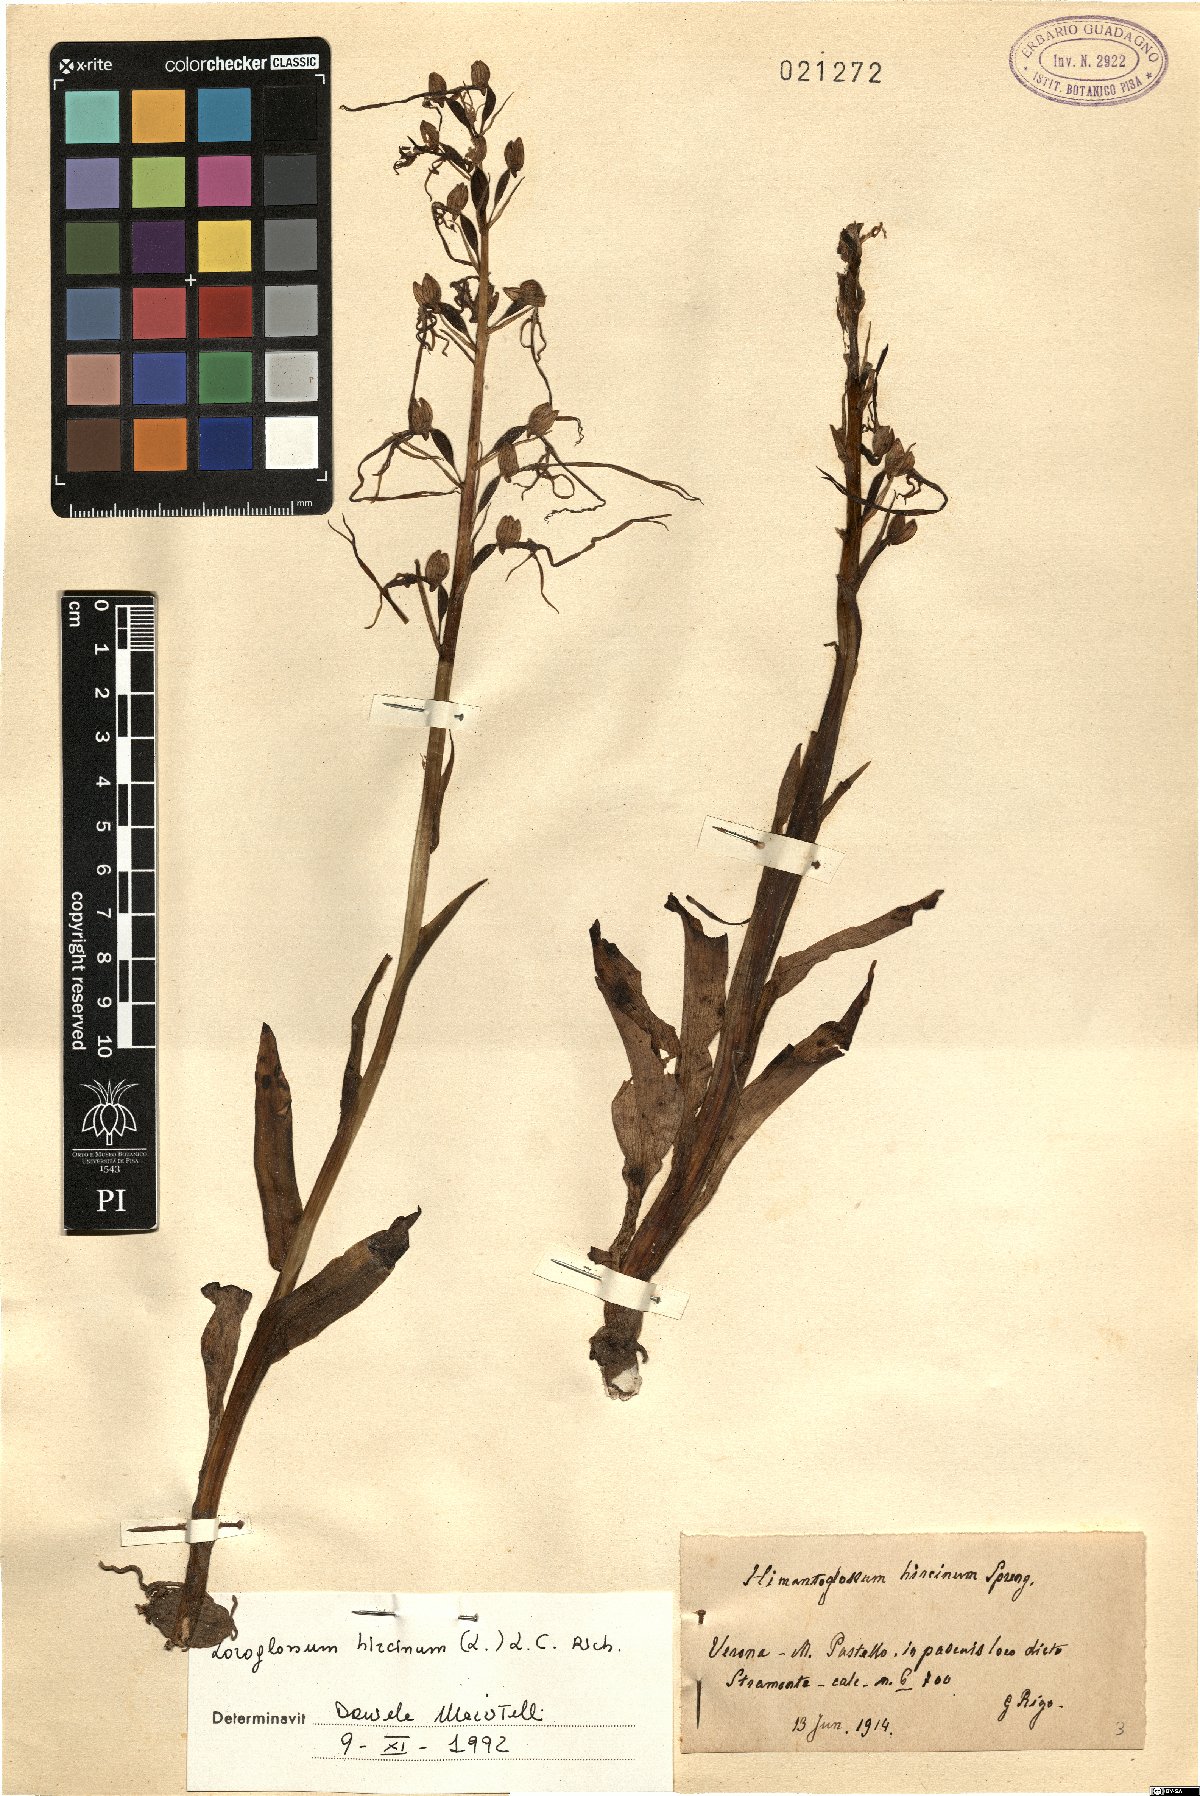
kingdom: Plantae
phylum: Tracheophyta
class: Liliopsida
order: Asparagales
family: Orchidaceae
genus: Himantoglossum
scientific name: Himantoglossum hircinum
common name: Lizard orchid
